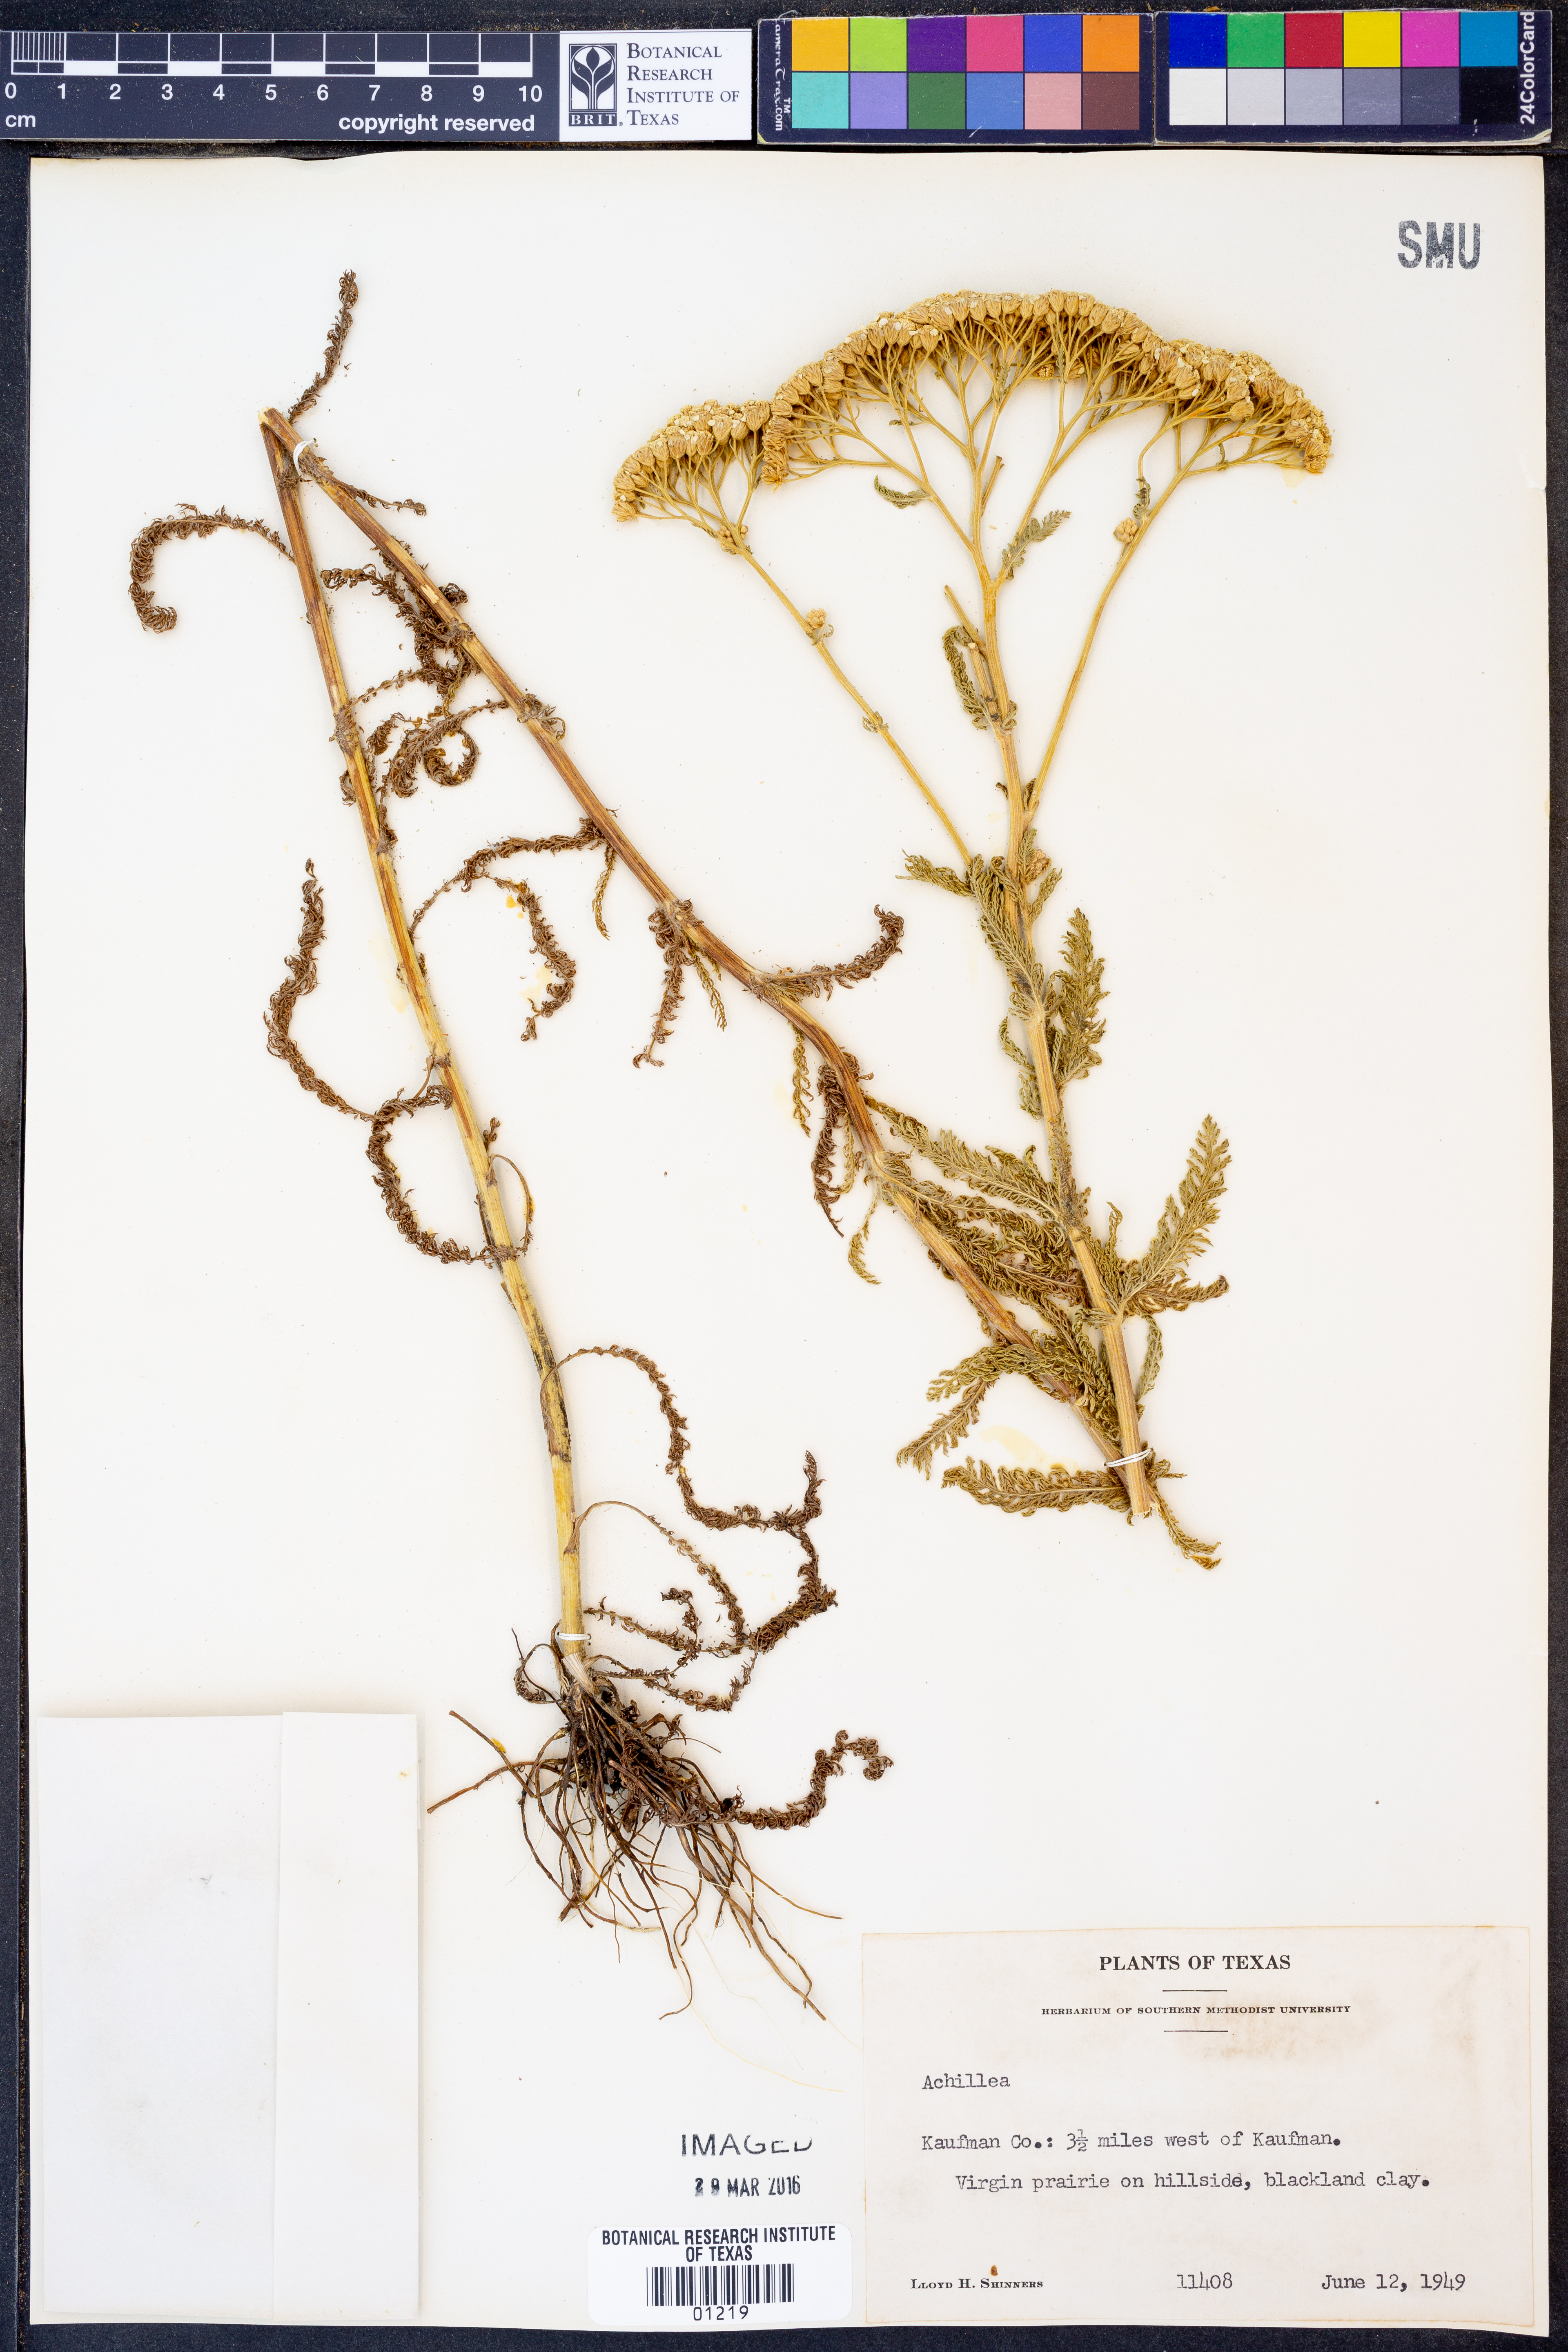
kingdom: Plantae
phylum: Tracheophyta
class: Magnoliopsida
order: Asterales
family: Asteraceae
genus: Achillea
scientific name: Achillea
